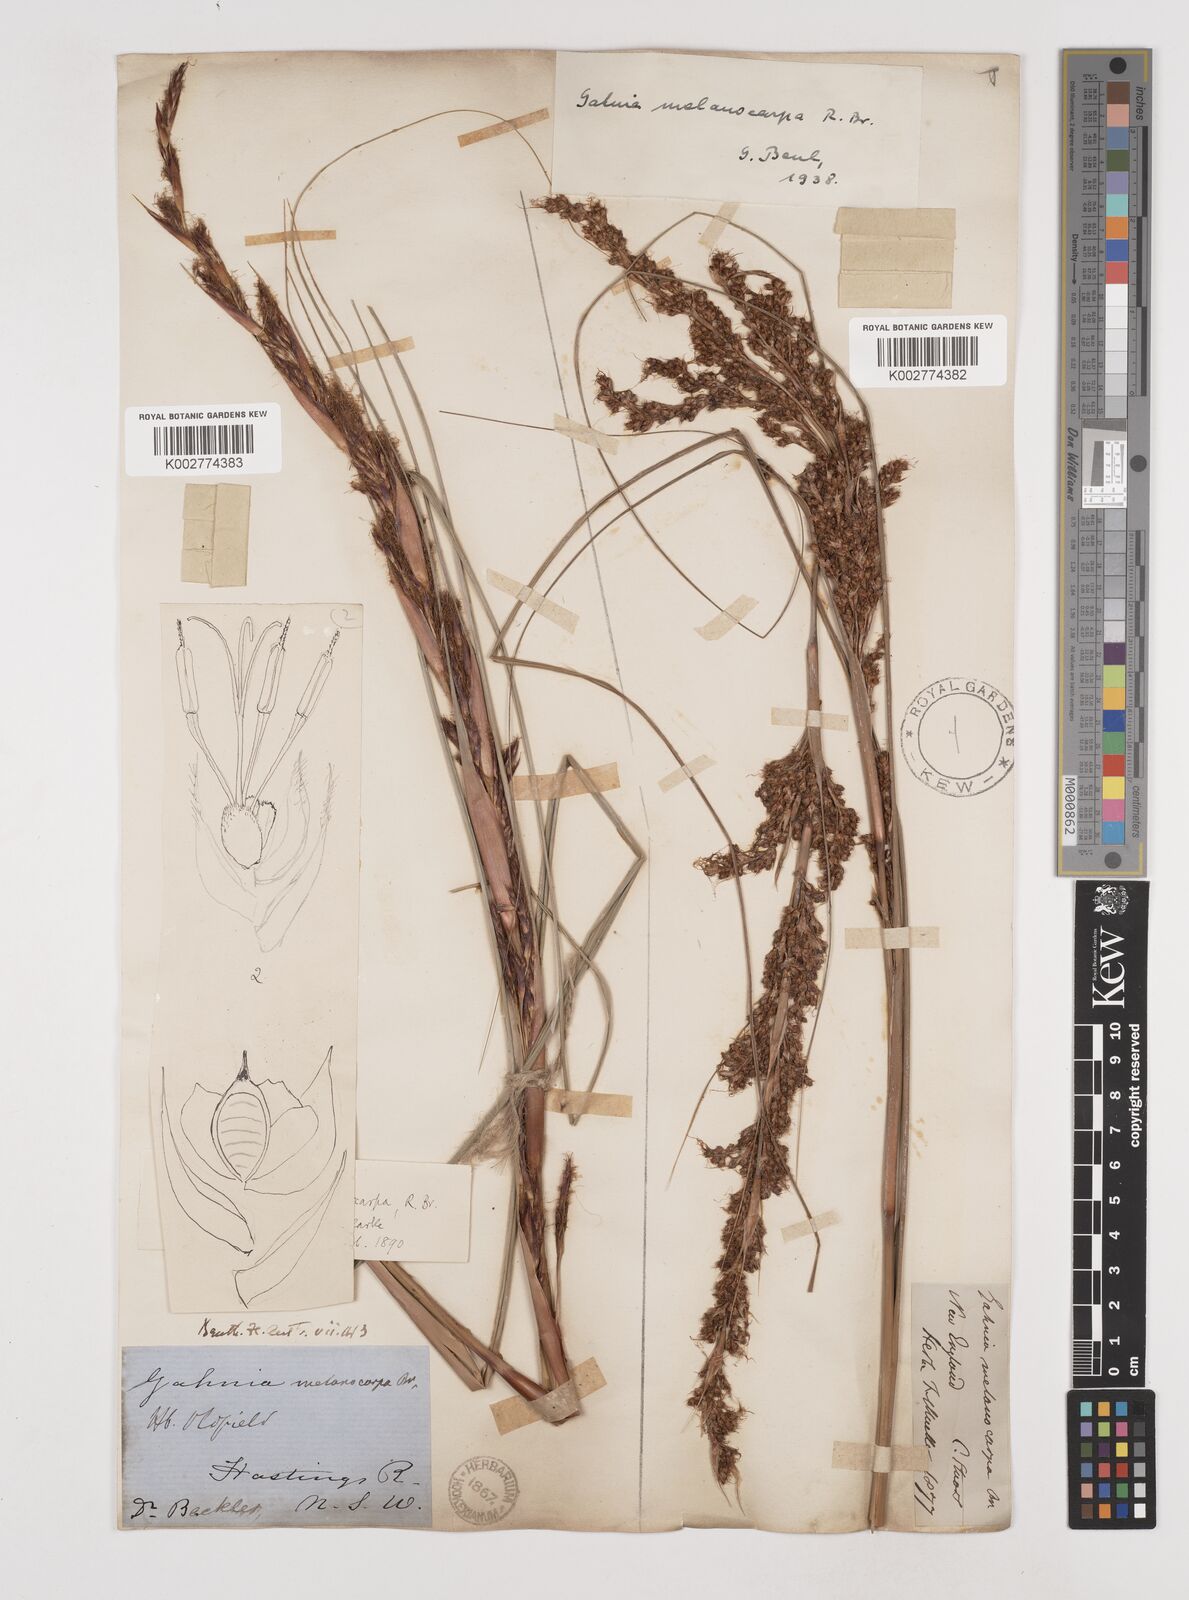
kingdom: Plantae
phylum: Tracheophyta
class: Liliopsida
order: Poales
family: Cyperaceae
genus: Gahnia
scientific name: Gahnia melanocarpa
